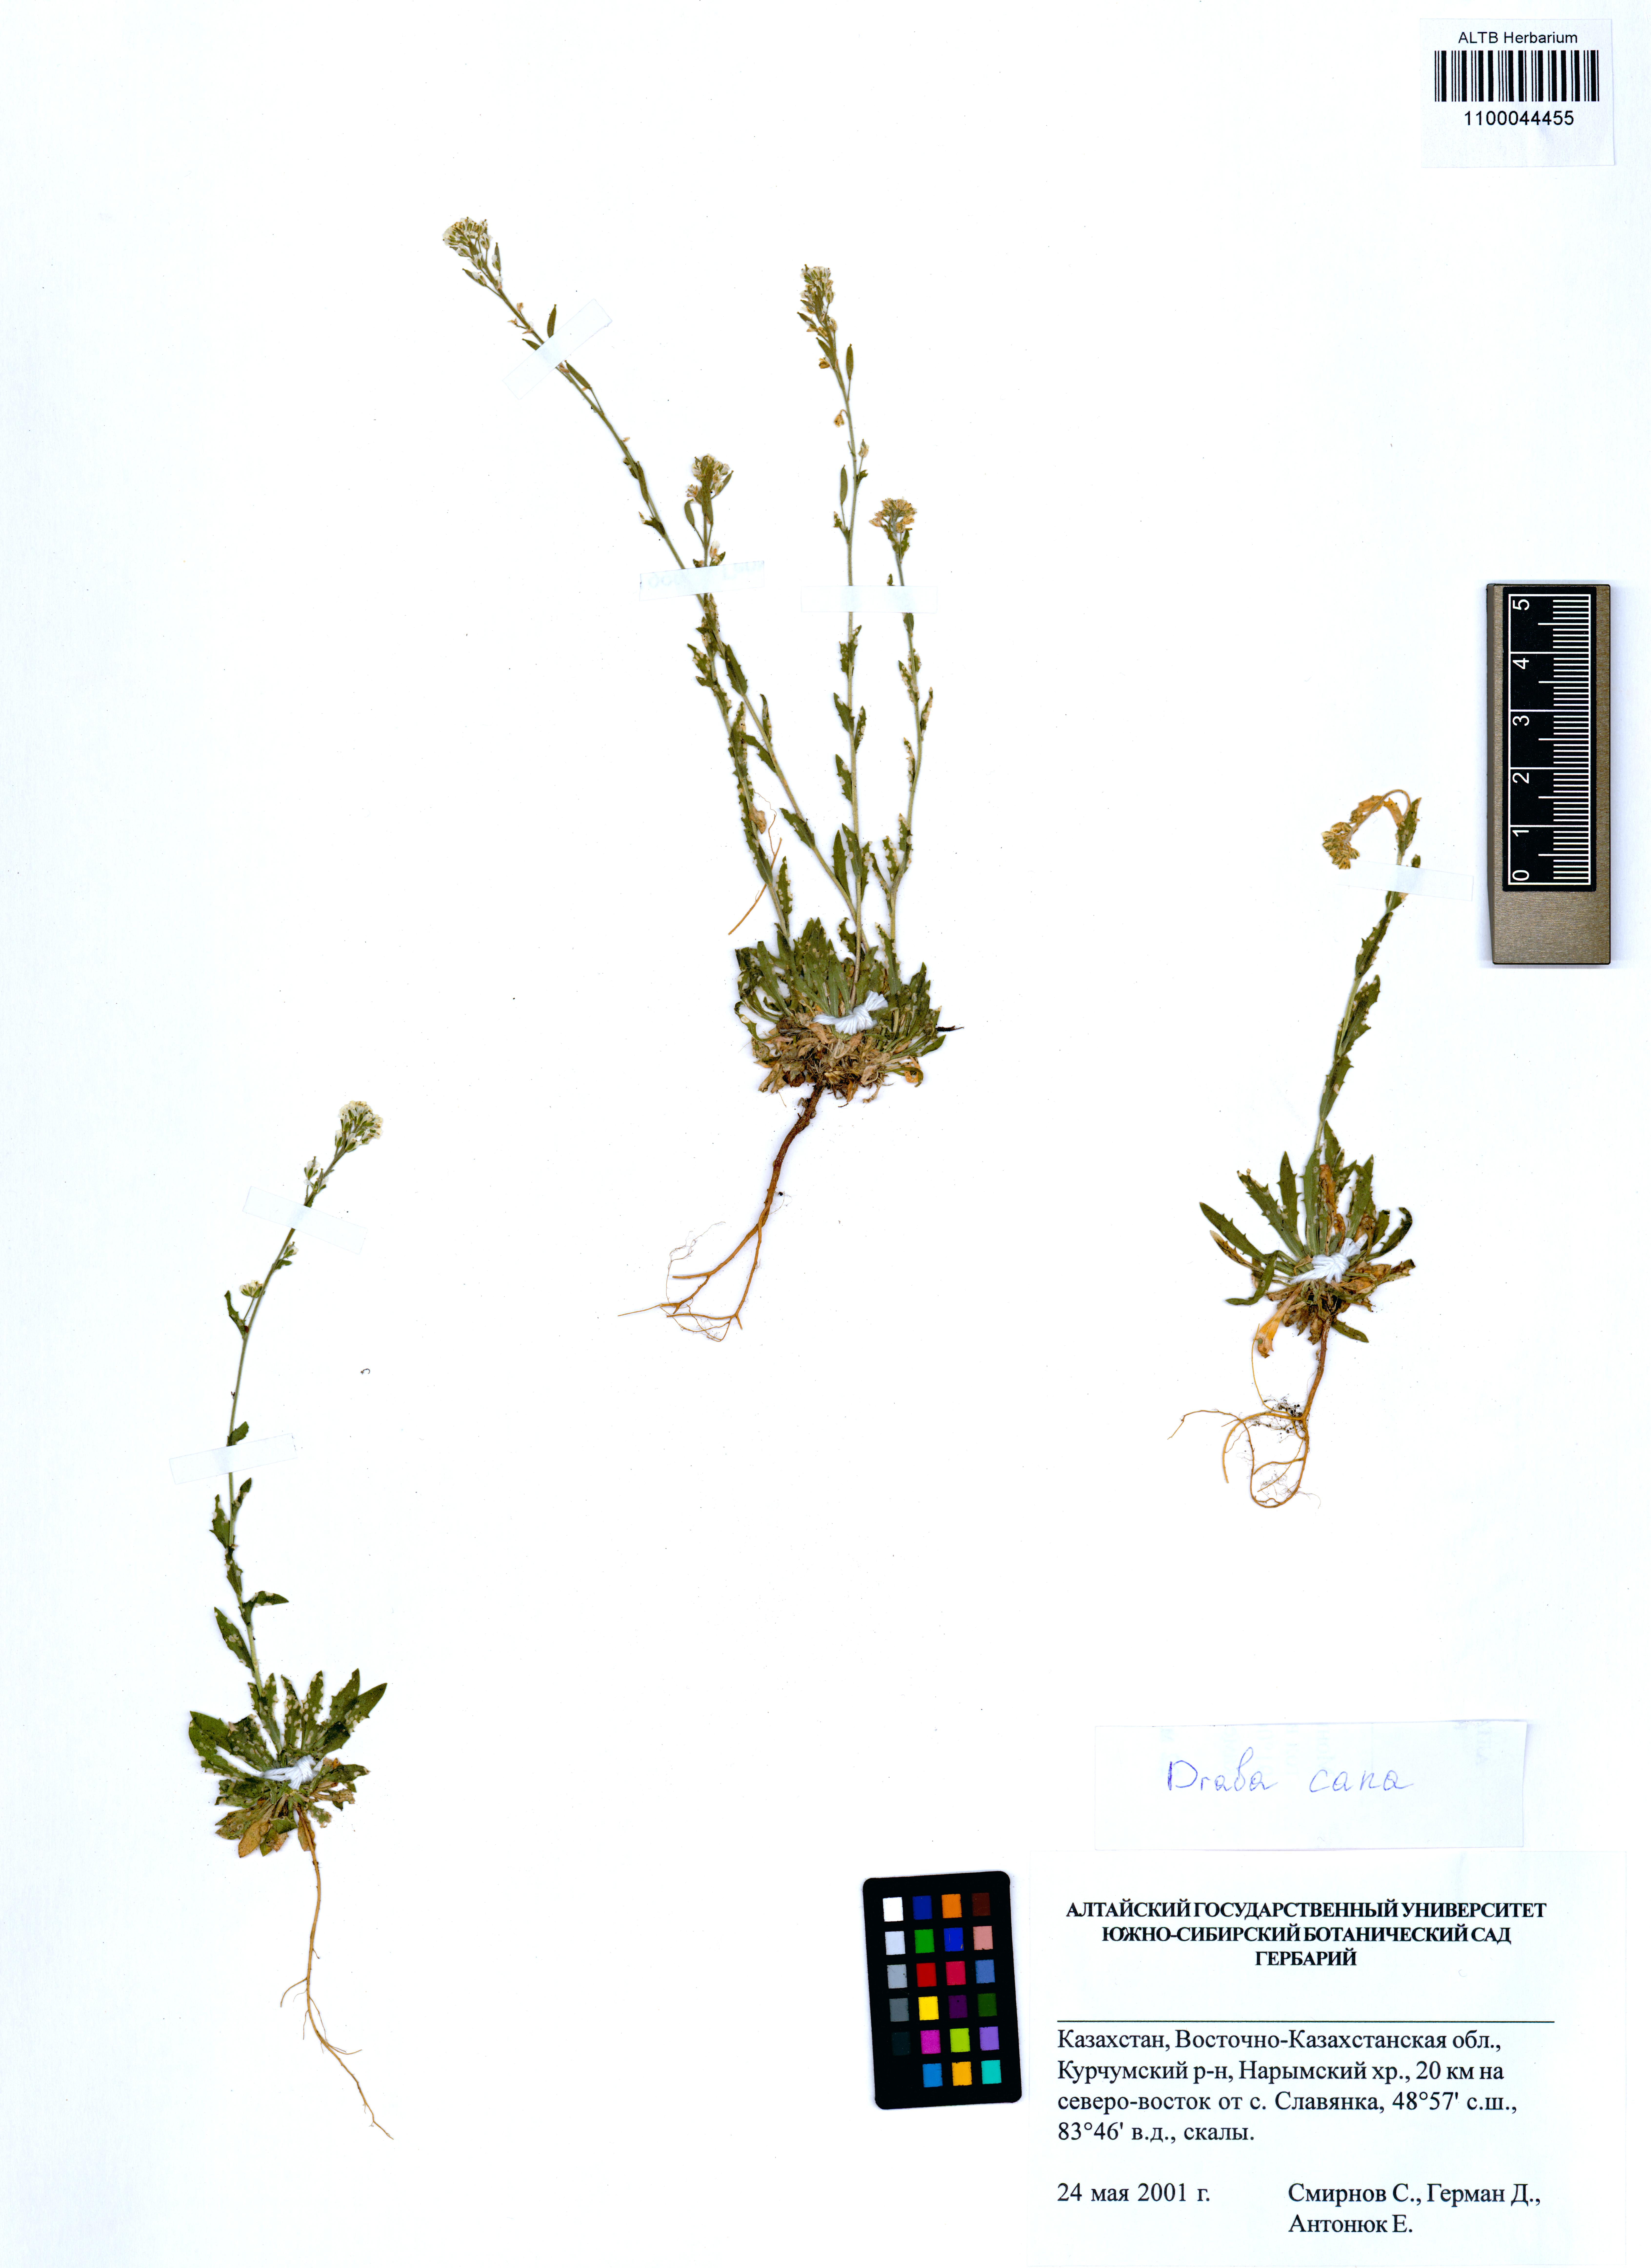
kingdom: Plantae
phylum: Tracheophyta
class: Magnoliopsida
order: Brassicales
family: Brassicaceae
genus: Draba
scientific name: Draba cana
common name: Hoary draba
